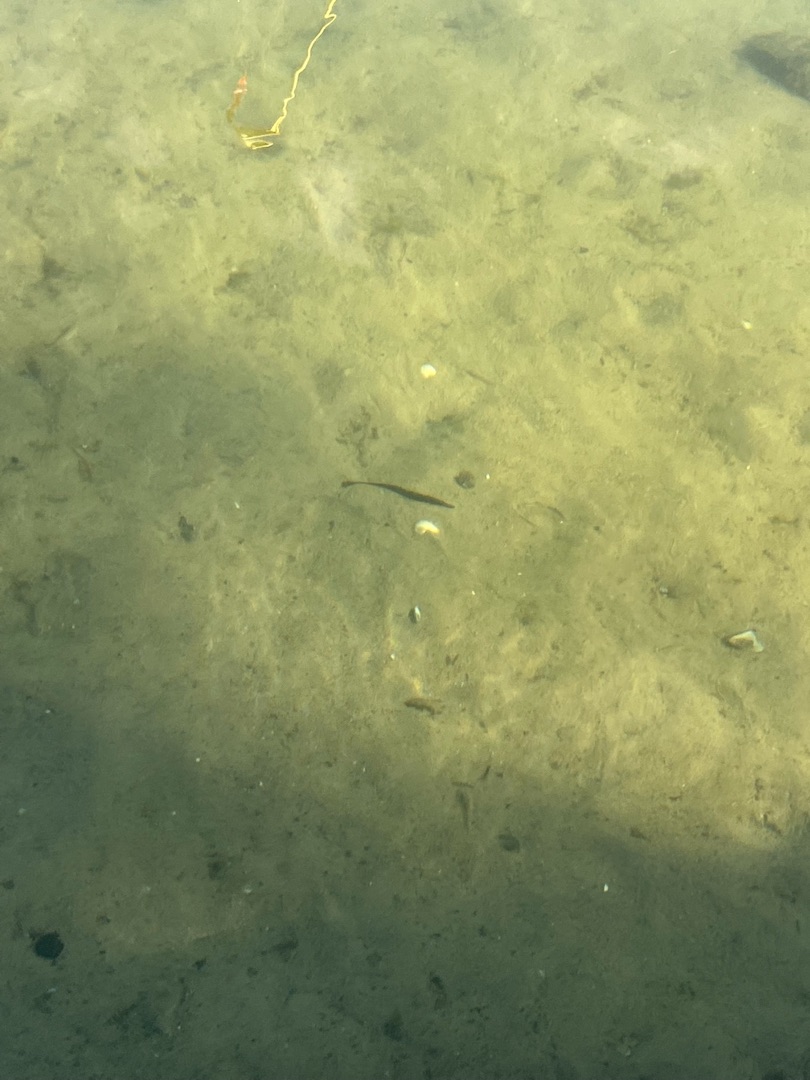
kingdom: Animalia
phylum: Chordata
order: Gasterosteiformes
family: Gasterosteidae
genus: Spinachia
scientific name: Spinachia spinachia
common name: Tangsnarre
